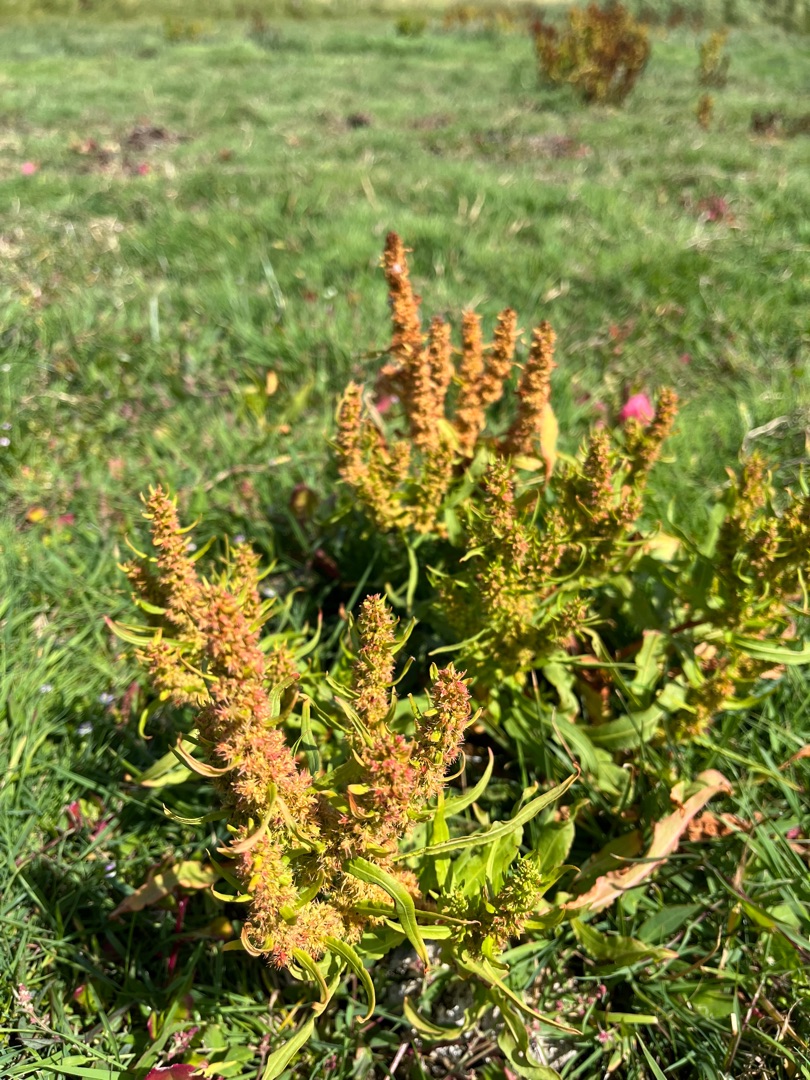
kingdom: Plantae
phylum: Tracheophyta
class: Magnoliopsida
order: Caryophyllales
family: Polygonaceae
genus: Rumex
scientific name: Rumex maritimus
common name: Strand-skræppe
